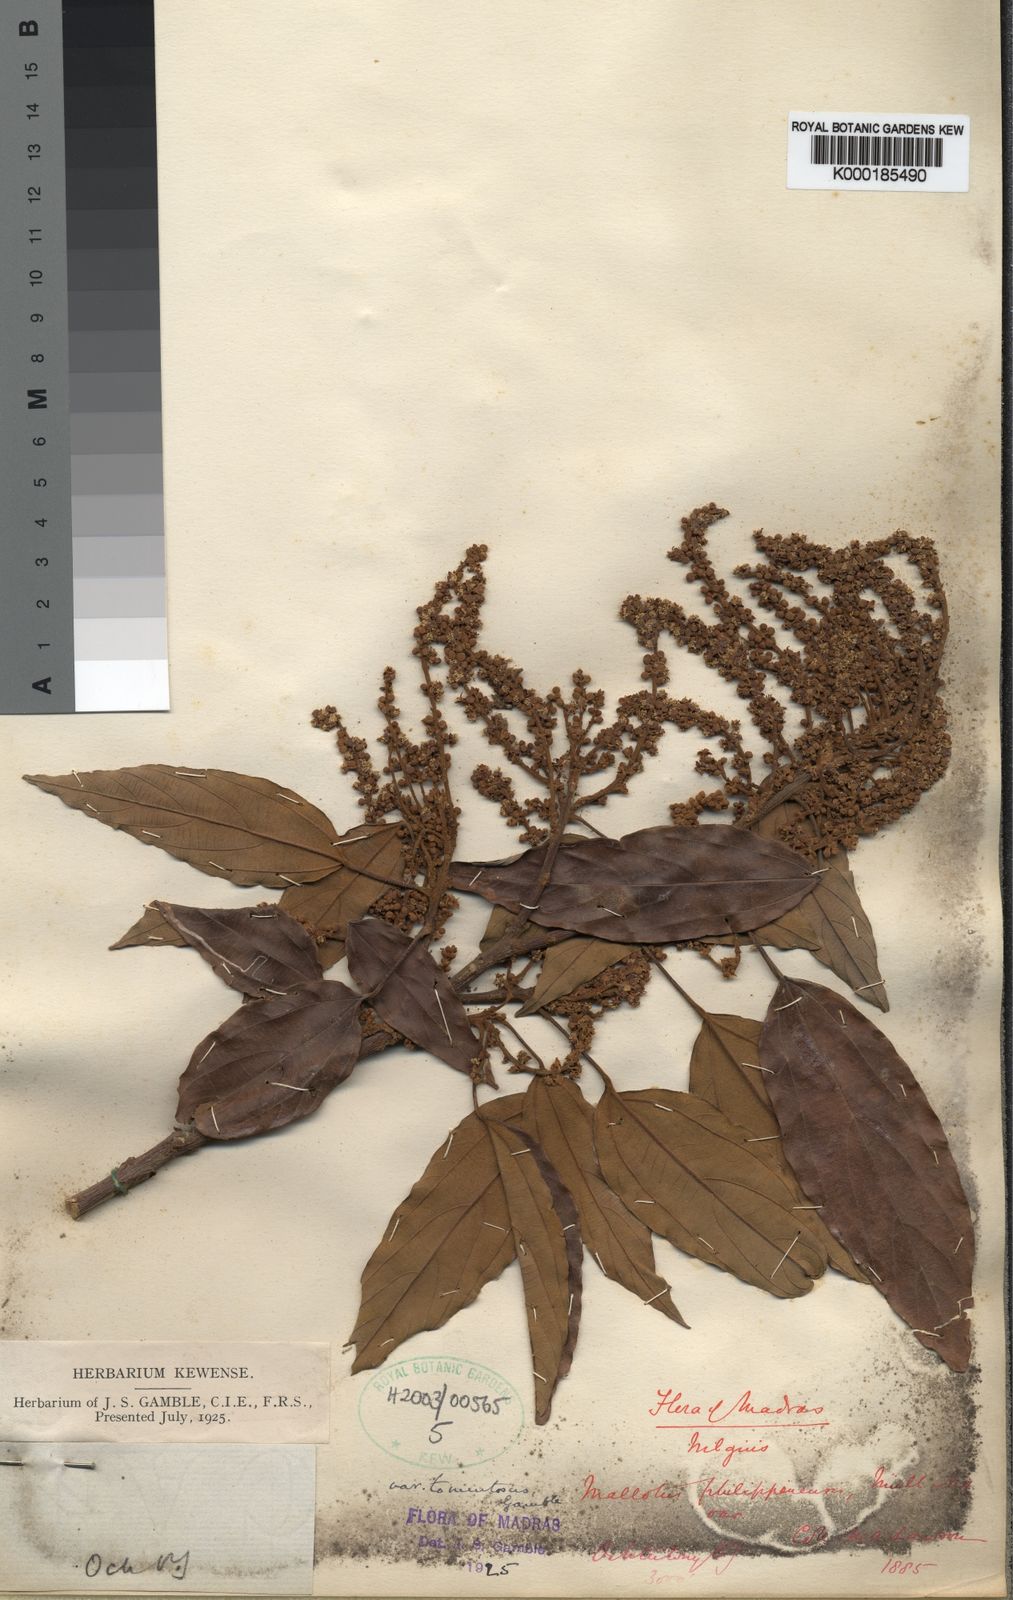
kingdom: Plantae
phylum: Tracheophyta
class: Magnoliopsida
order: Malpighiales
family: Euphorbiaceae
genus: Mallotus
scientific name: Mallotus
